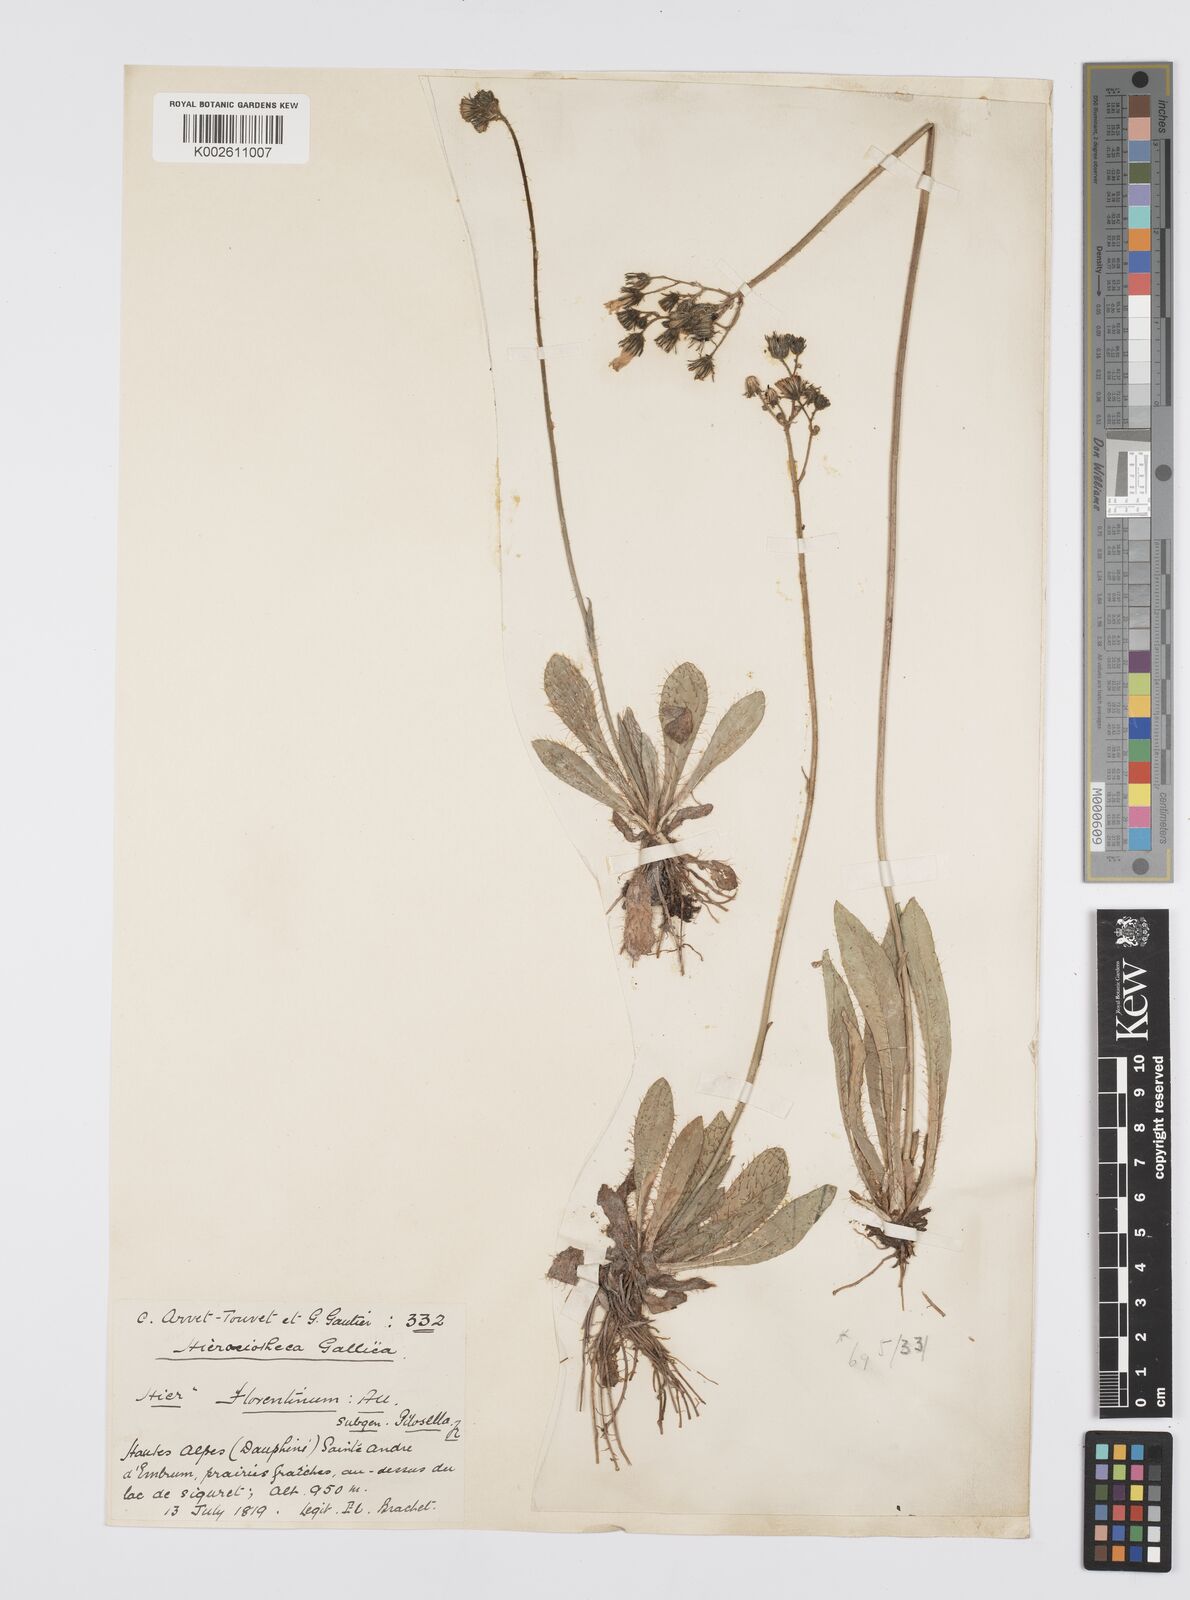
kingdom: Plantae
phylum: Tracheophyta
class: Magnoliopsida
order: Asterales
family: Asteraceae
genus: Pilosella
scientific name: Pilosella piloselloides
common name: Glaucous king-devil
